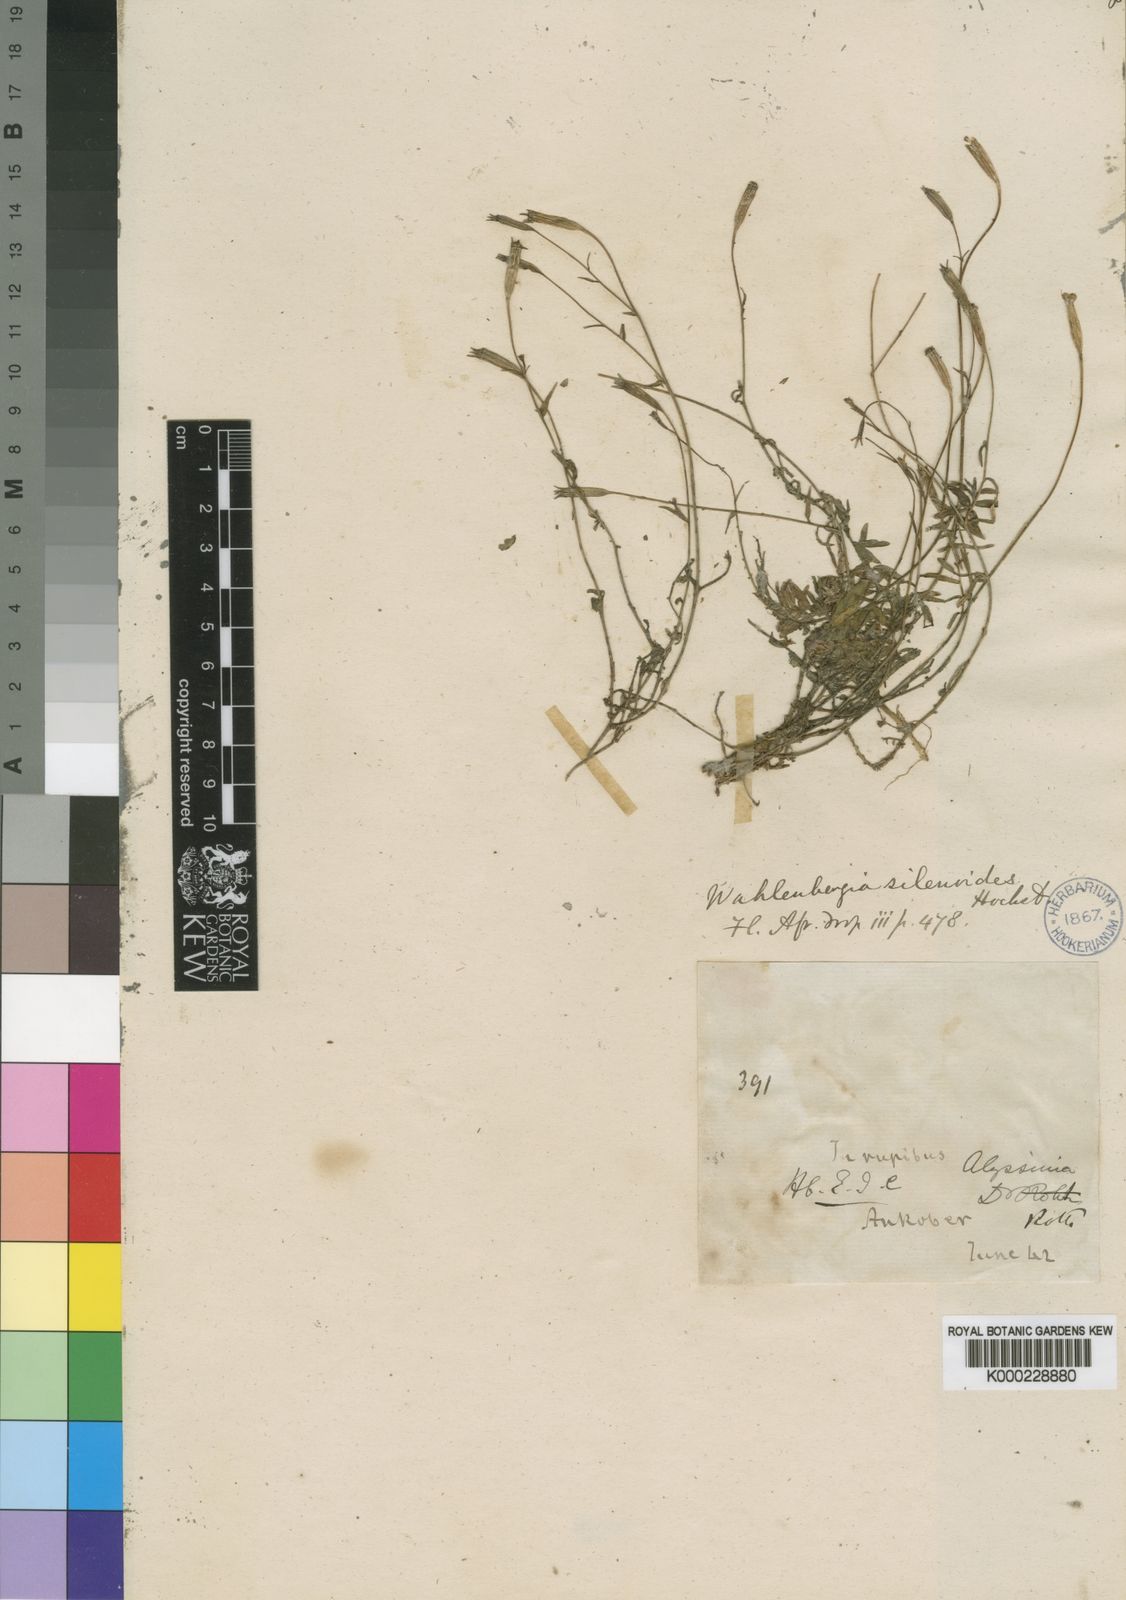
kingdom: Plantae
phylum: Tracheophyta
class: Magnoliopsida
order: Asterales
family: Campanulaceae
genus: Wahlenbergia
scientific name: Wahlenbergia silenoides
